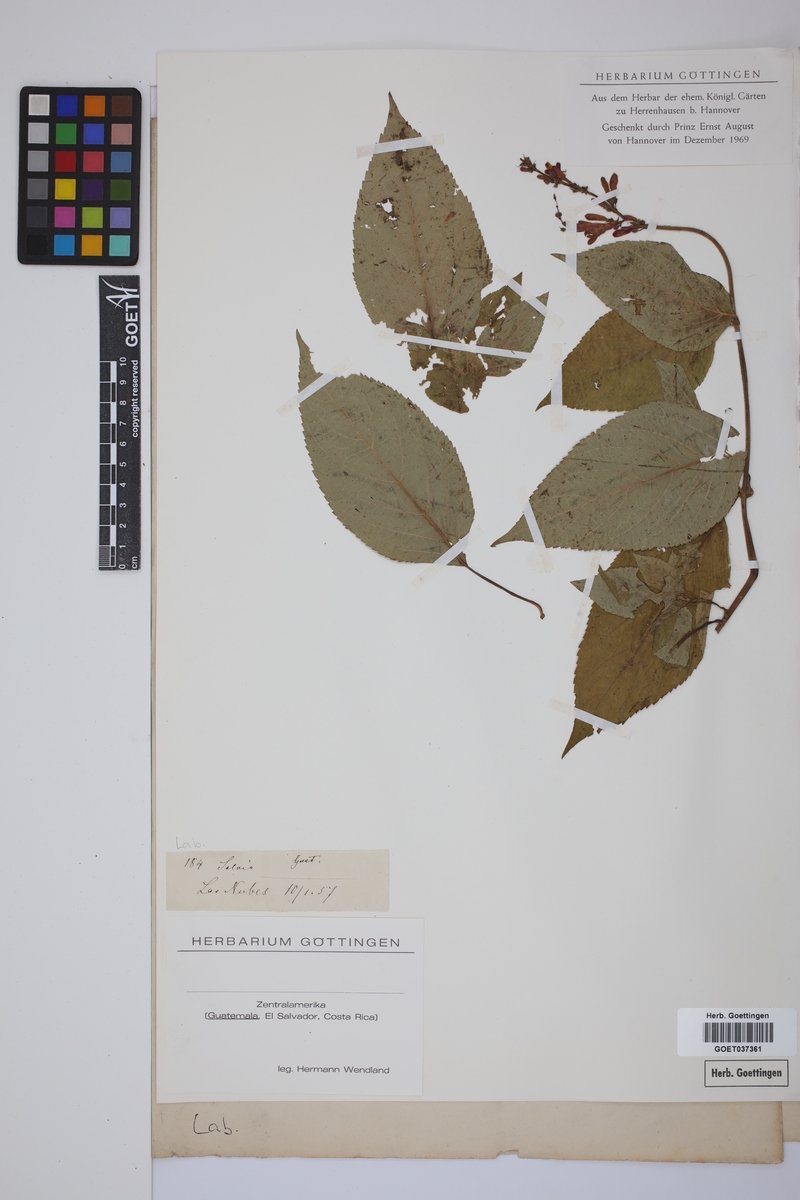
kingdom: Plantae
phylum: Tracheophyta
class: Magnoliopsida
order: Lamiales
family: Lamiaceae
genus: Salvia
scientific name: Salvia
